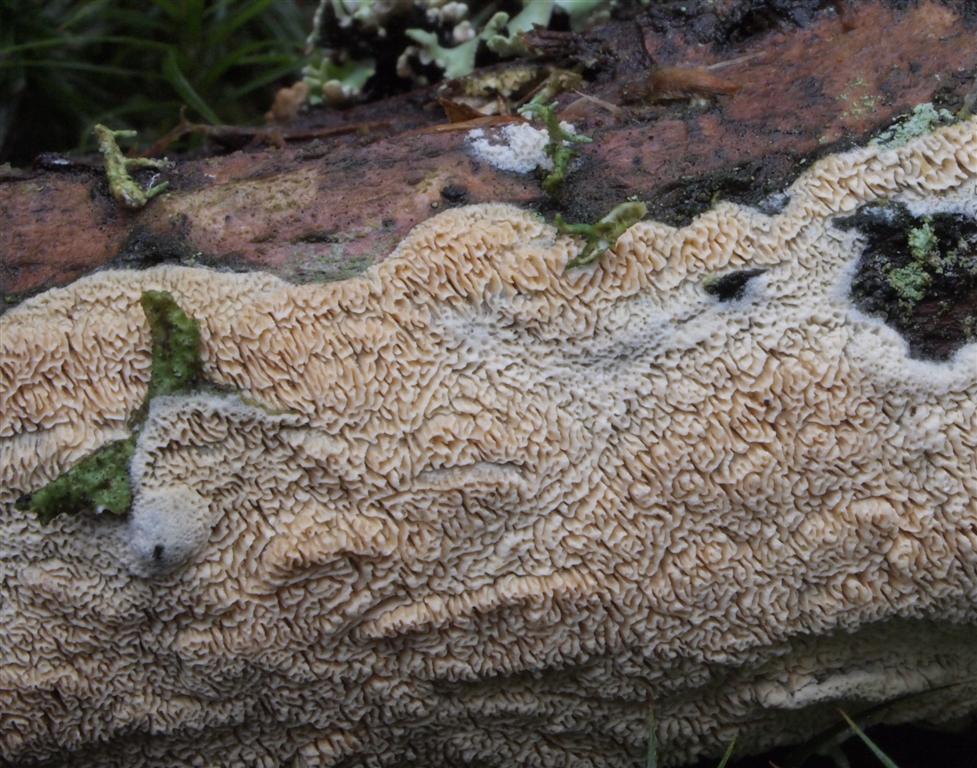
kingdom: Fungi
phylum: Basidiomycota
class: Agaricomycetes
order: Hymenochaetales
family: Schizoporaceae
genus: Xylodon
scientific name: Xylodon subtropicus
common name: labyrint-tandsvamp
